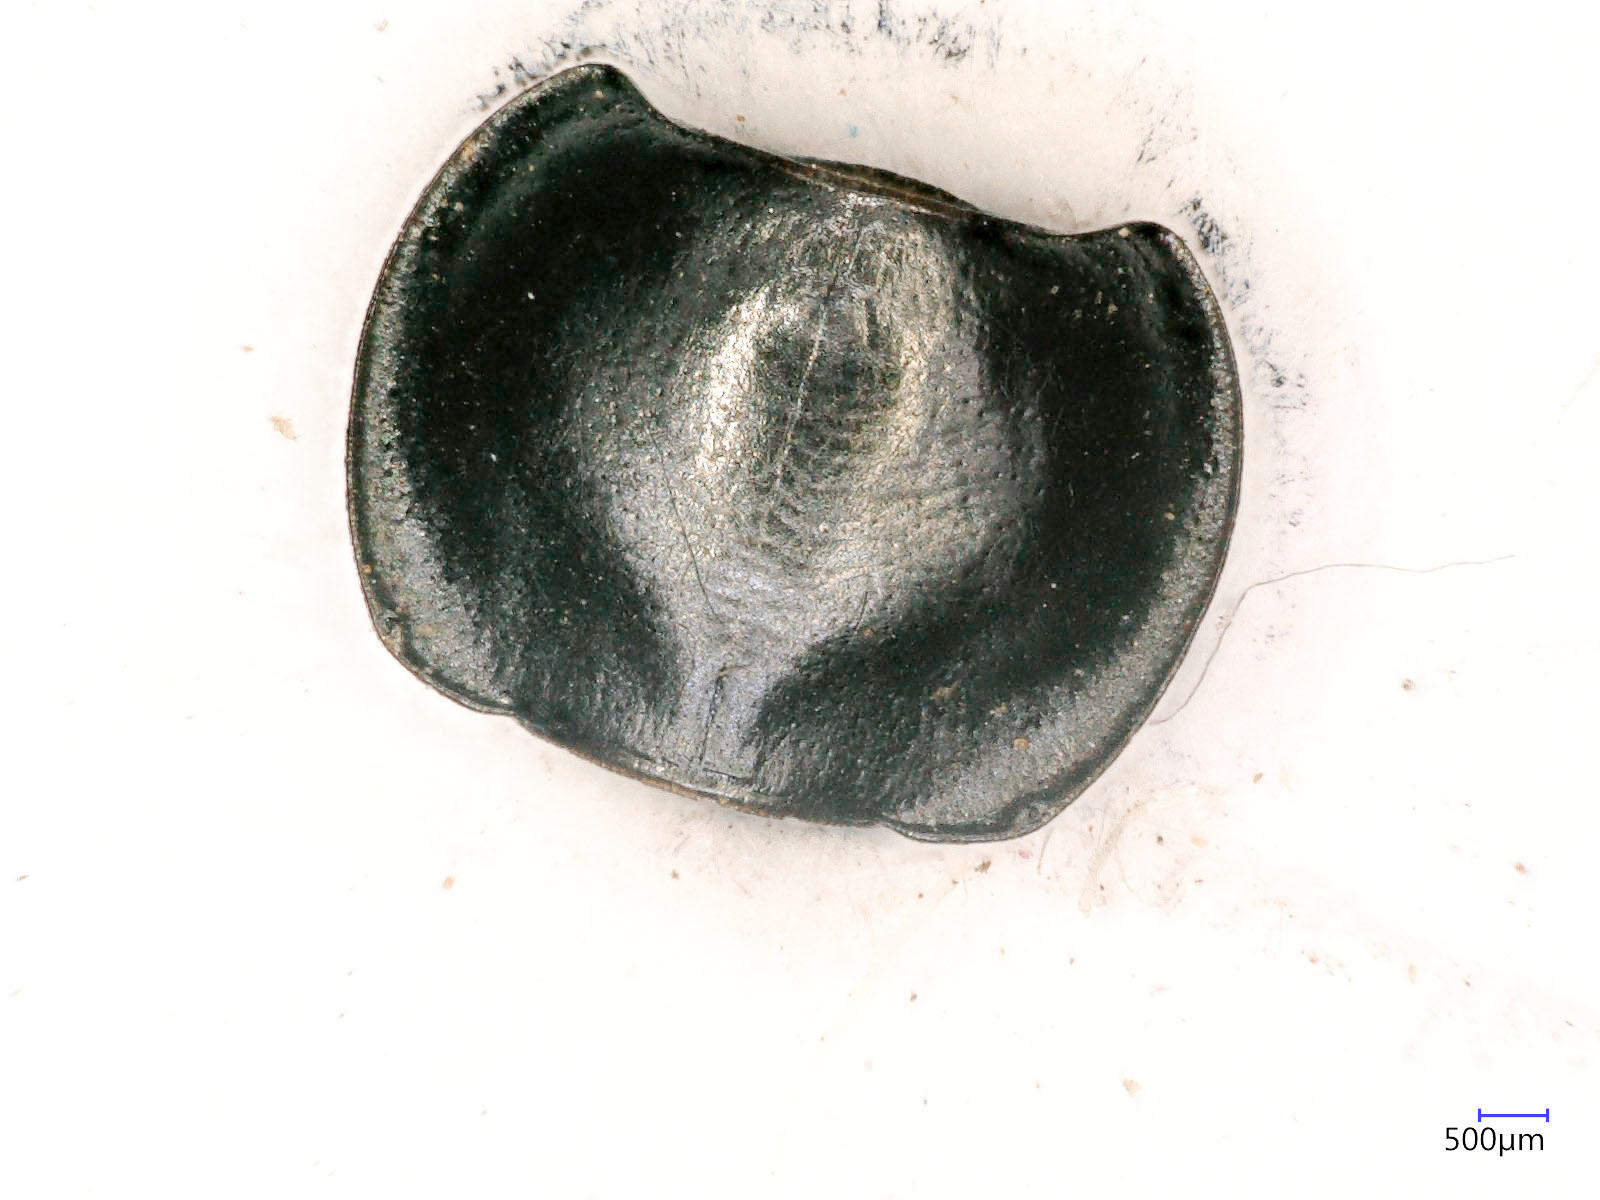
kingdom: Animalia
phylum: Arthropoda
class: Insecta
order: Coleoptera
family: Carabidae
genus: Tanystoma
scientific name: Tanystoma maculicolle
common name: Tule beetle
